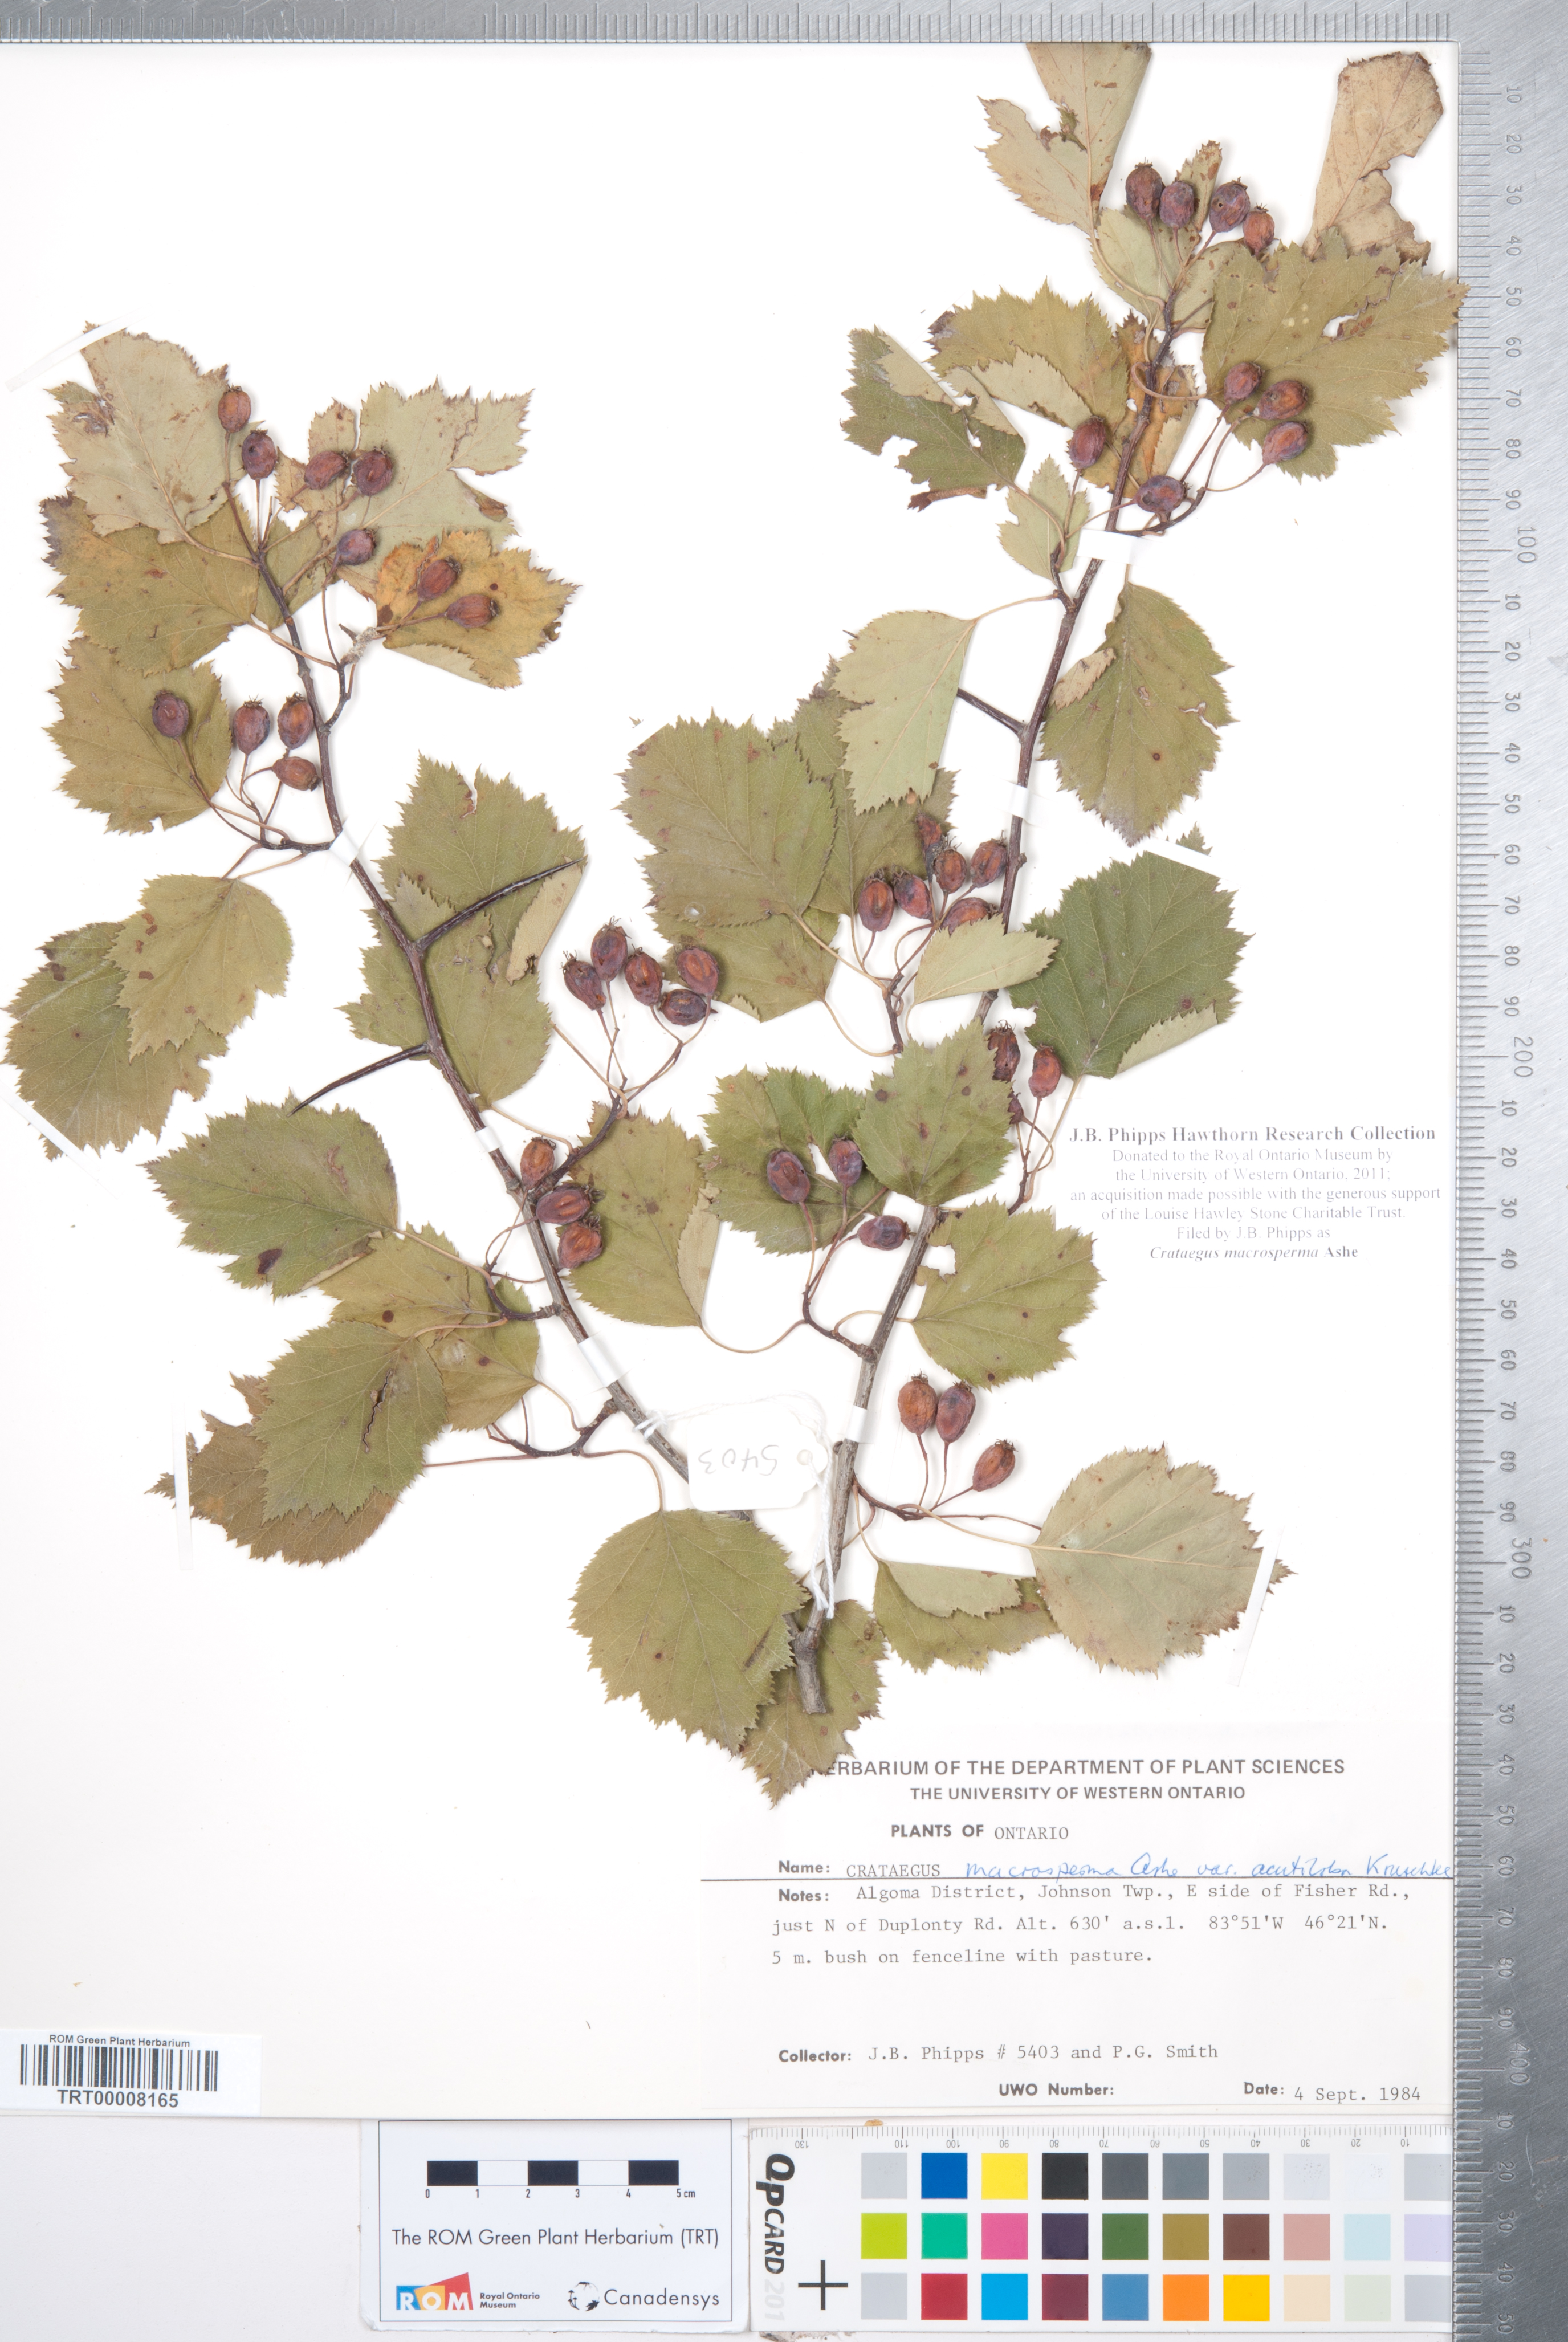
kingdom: Plantae
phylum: Tracheophyta
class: Magnoliopsida
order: Rosales
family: Rosaceae
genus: Crataegus
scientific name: Crataegus macrosperma
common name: Variable hawthorn
